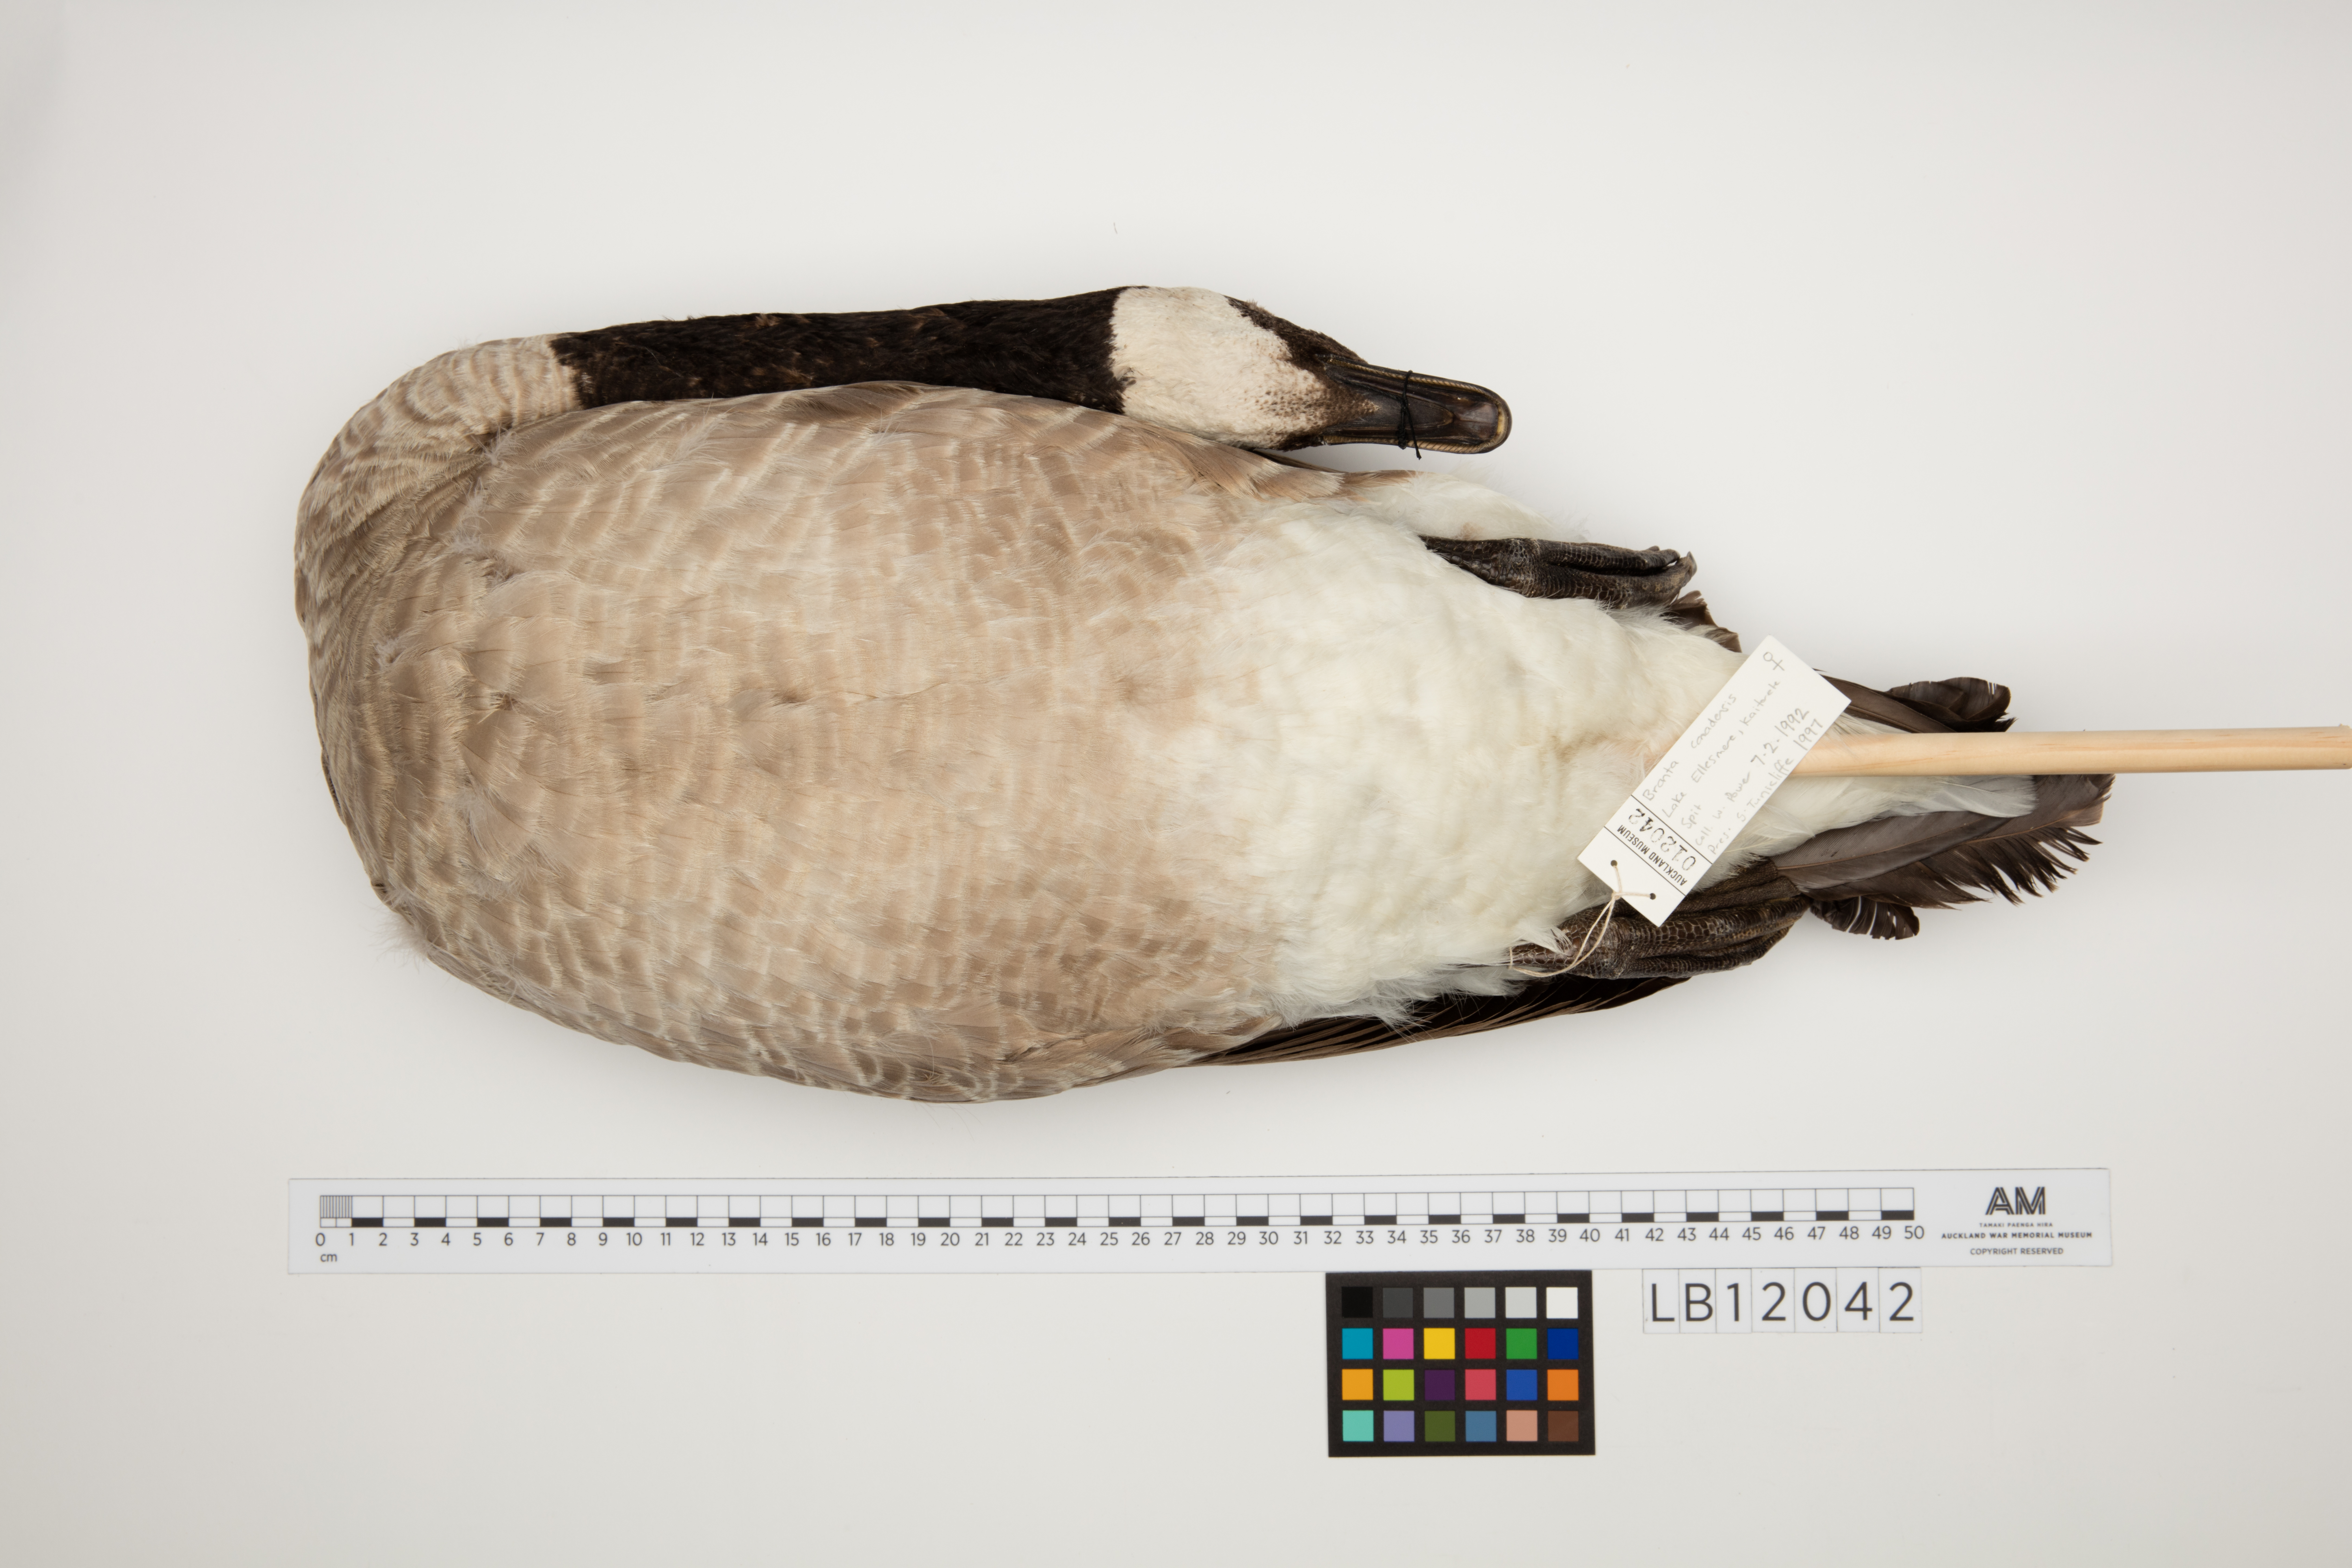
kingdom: Animalia
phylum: Chordata
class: Aves
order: Anseriformes
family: Anatidae
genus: Branta
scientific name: Branta canadensis
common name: Canada goose
